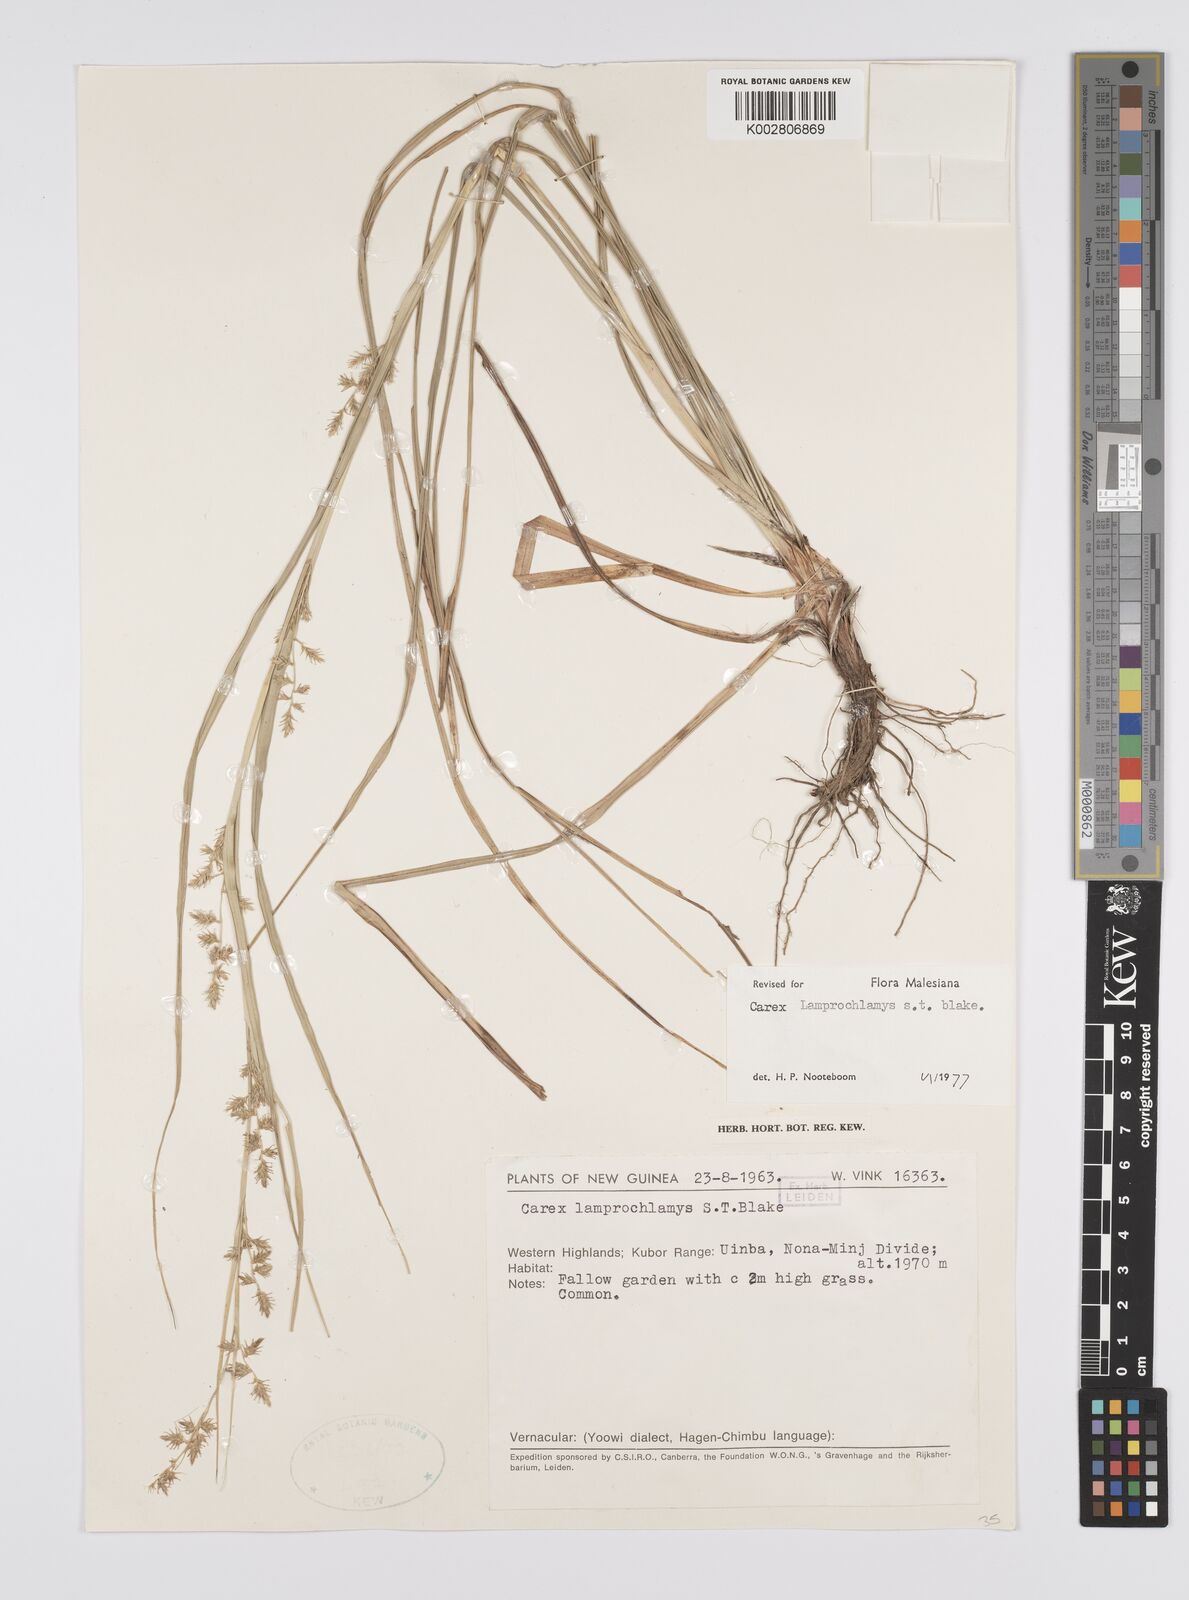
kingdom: Plantae
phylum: Tracheophyta
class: Liliopsida
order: Poales
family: Cyperaceae
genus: Carex
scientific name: Carex lamprochlamys
